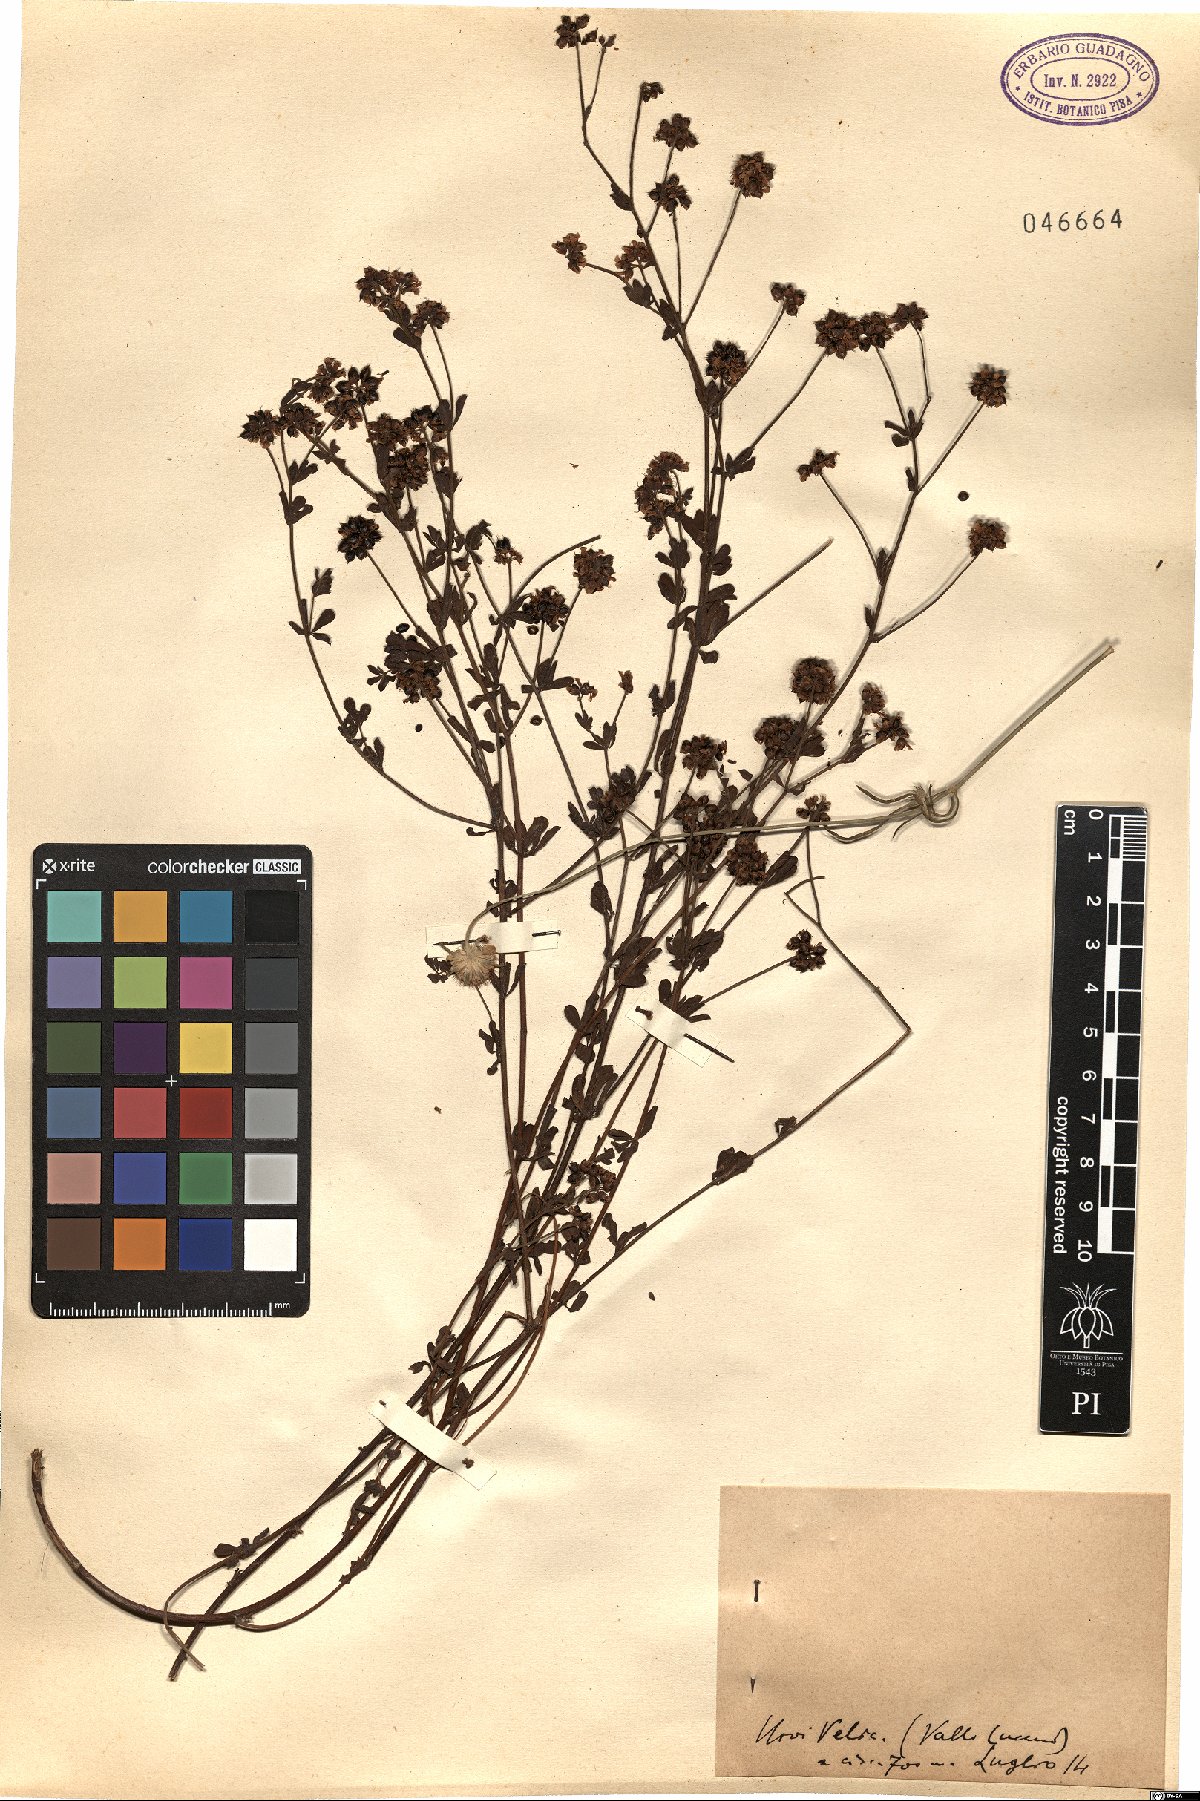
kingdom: Plantae
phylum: Tracheophyta
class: Magnoliopsida
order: Fabales
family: Fabaceae
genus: Lotus
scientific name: Lotus
